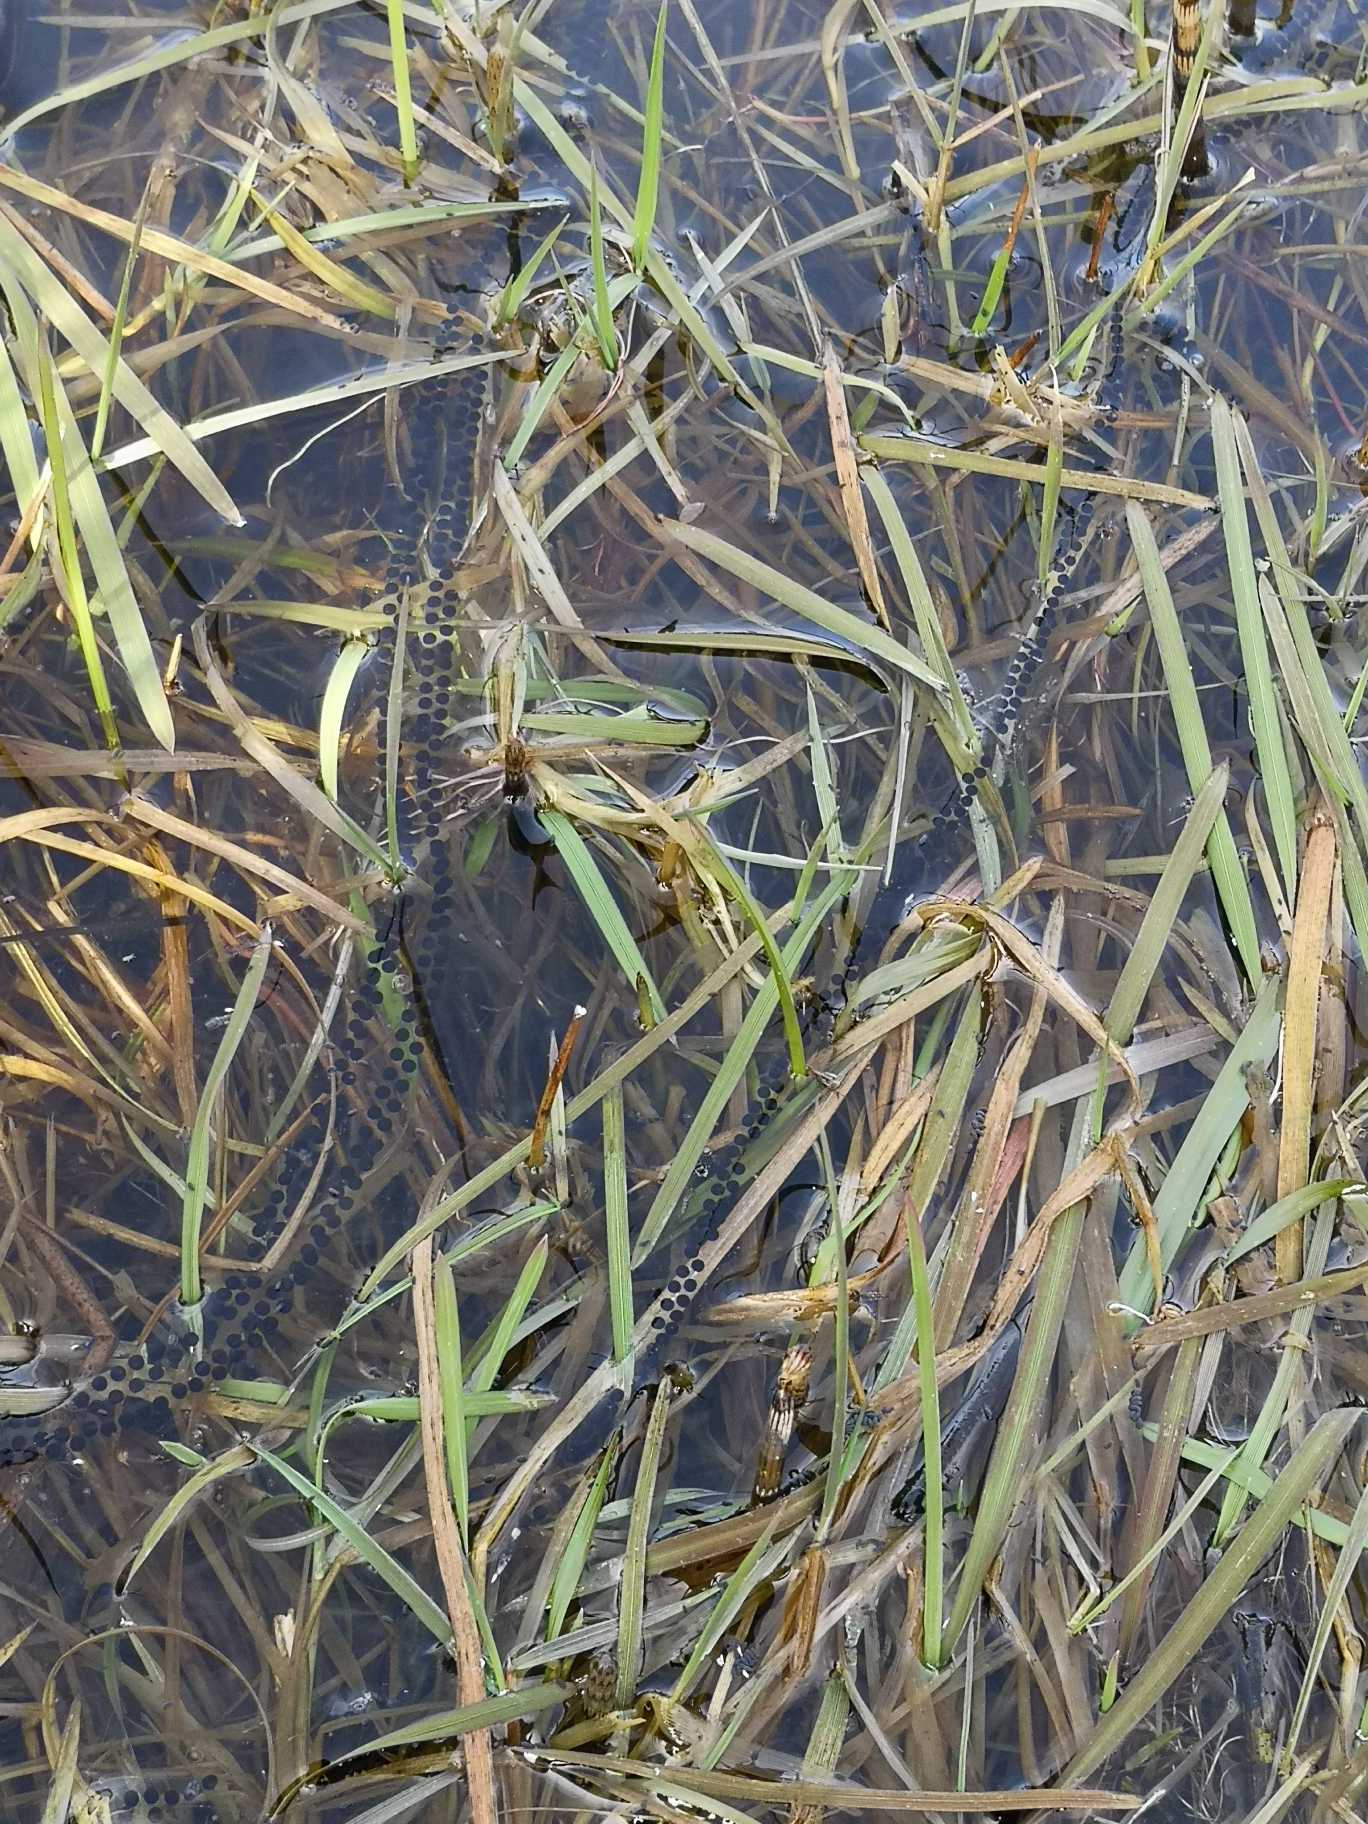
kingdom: Animalia
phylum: Chordata
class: Amphibia
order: Anura
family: Bufonidae
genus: Bufo
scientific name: Bufo bufo
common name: Skrubtudse
